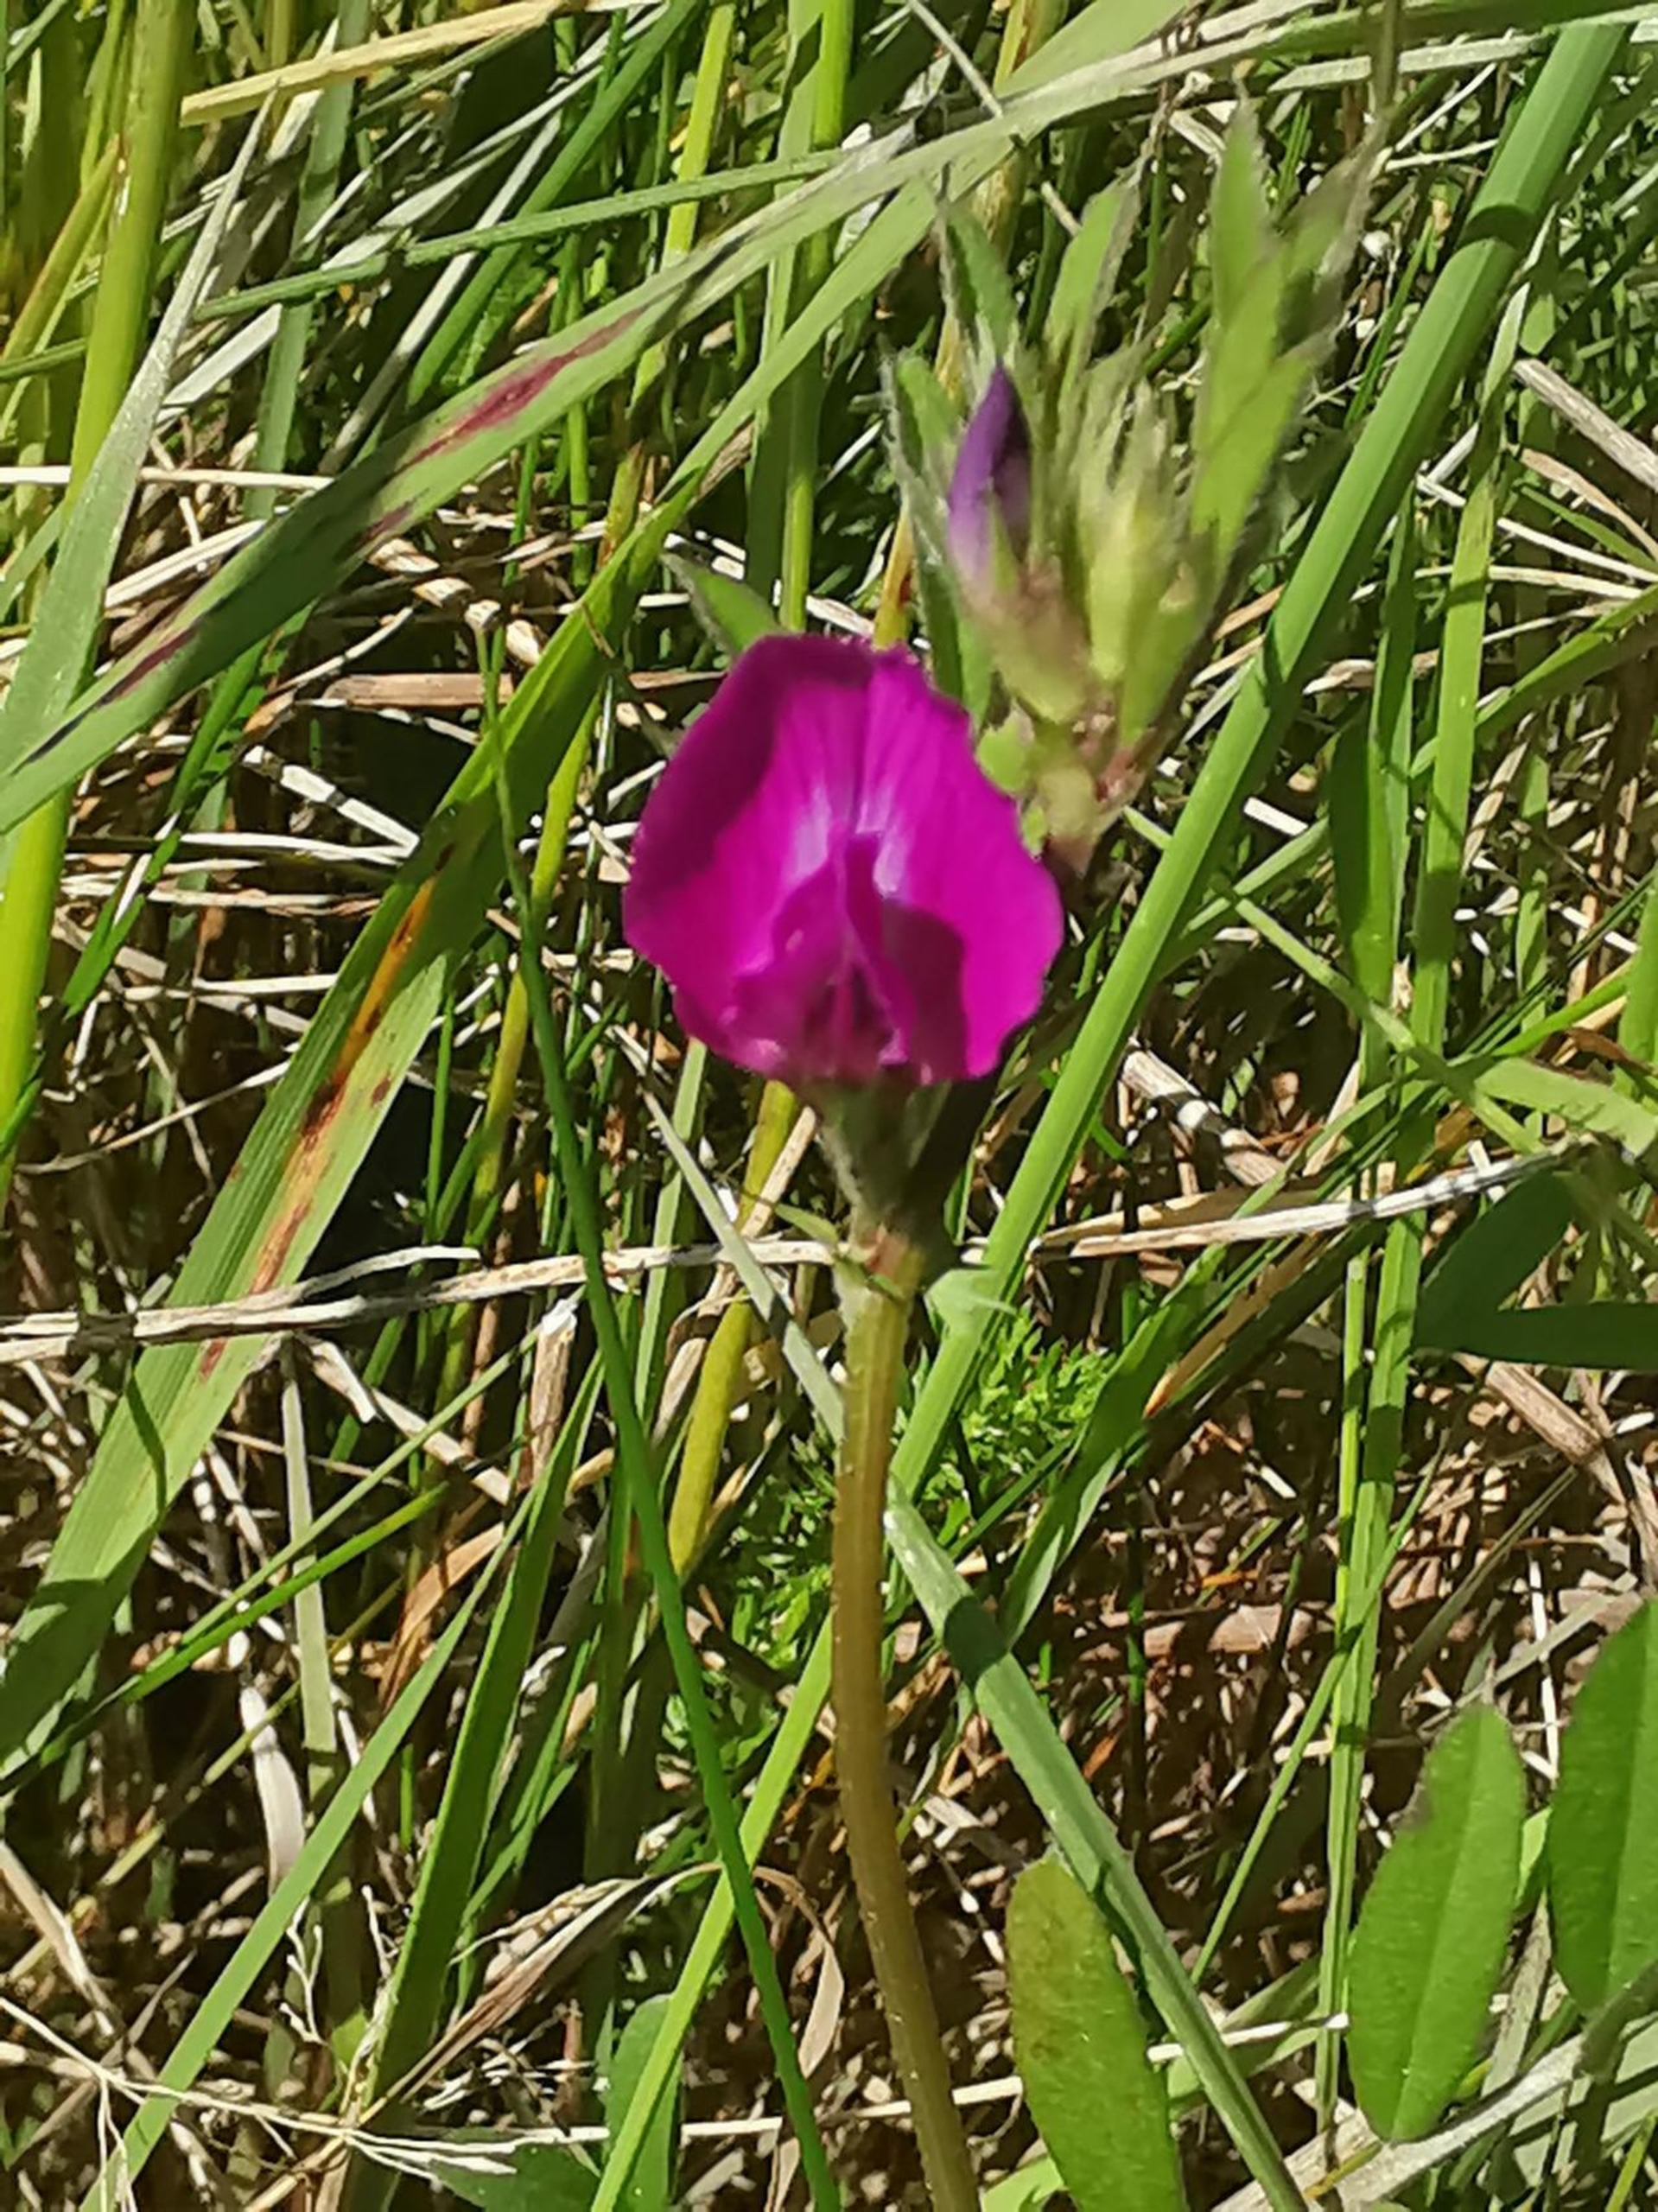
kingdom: Plantae
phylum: Tracheophyta
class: Magnoliopsida
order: Fabales
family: Fabaceae
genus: Vicia
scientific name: Vicia sativa
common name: Smalbladet vikke
